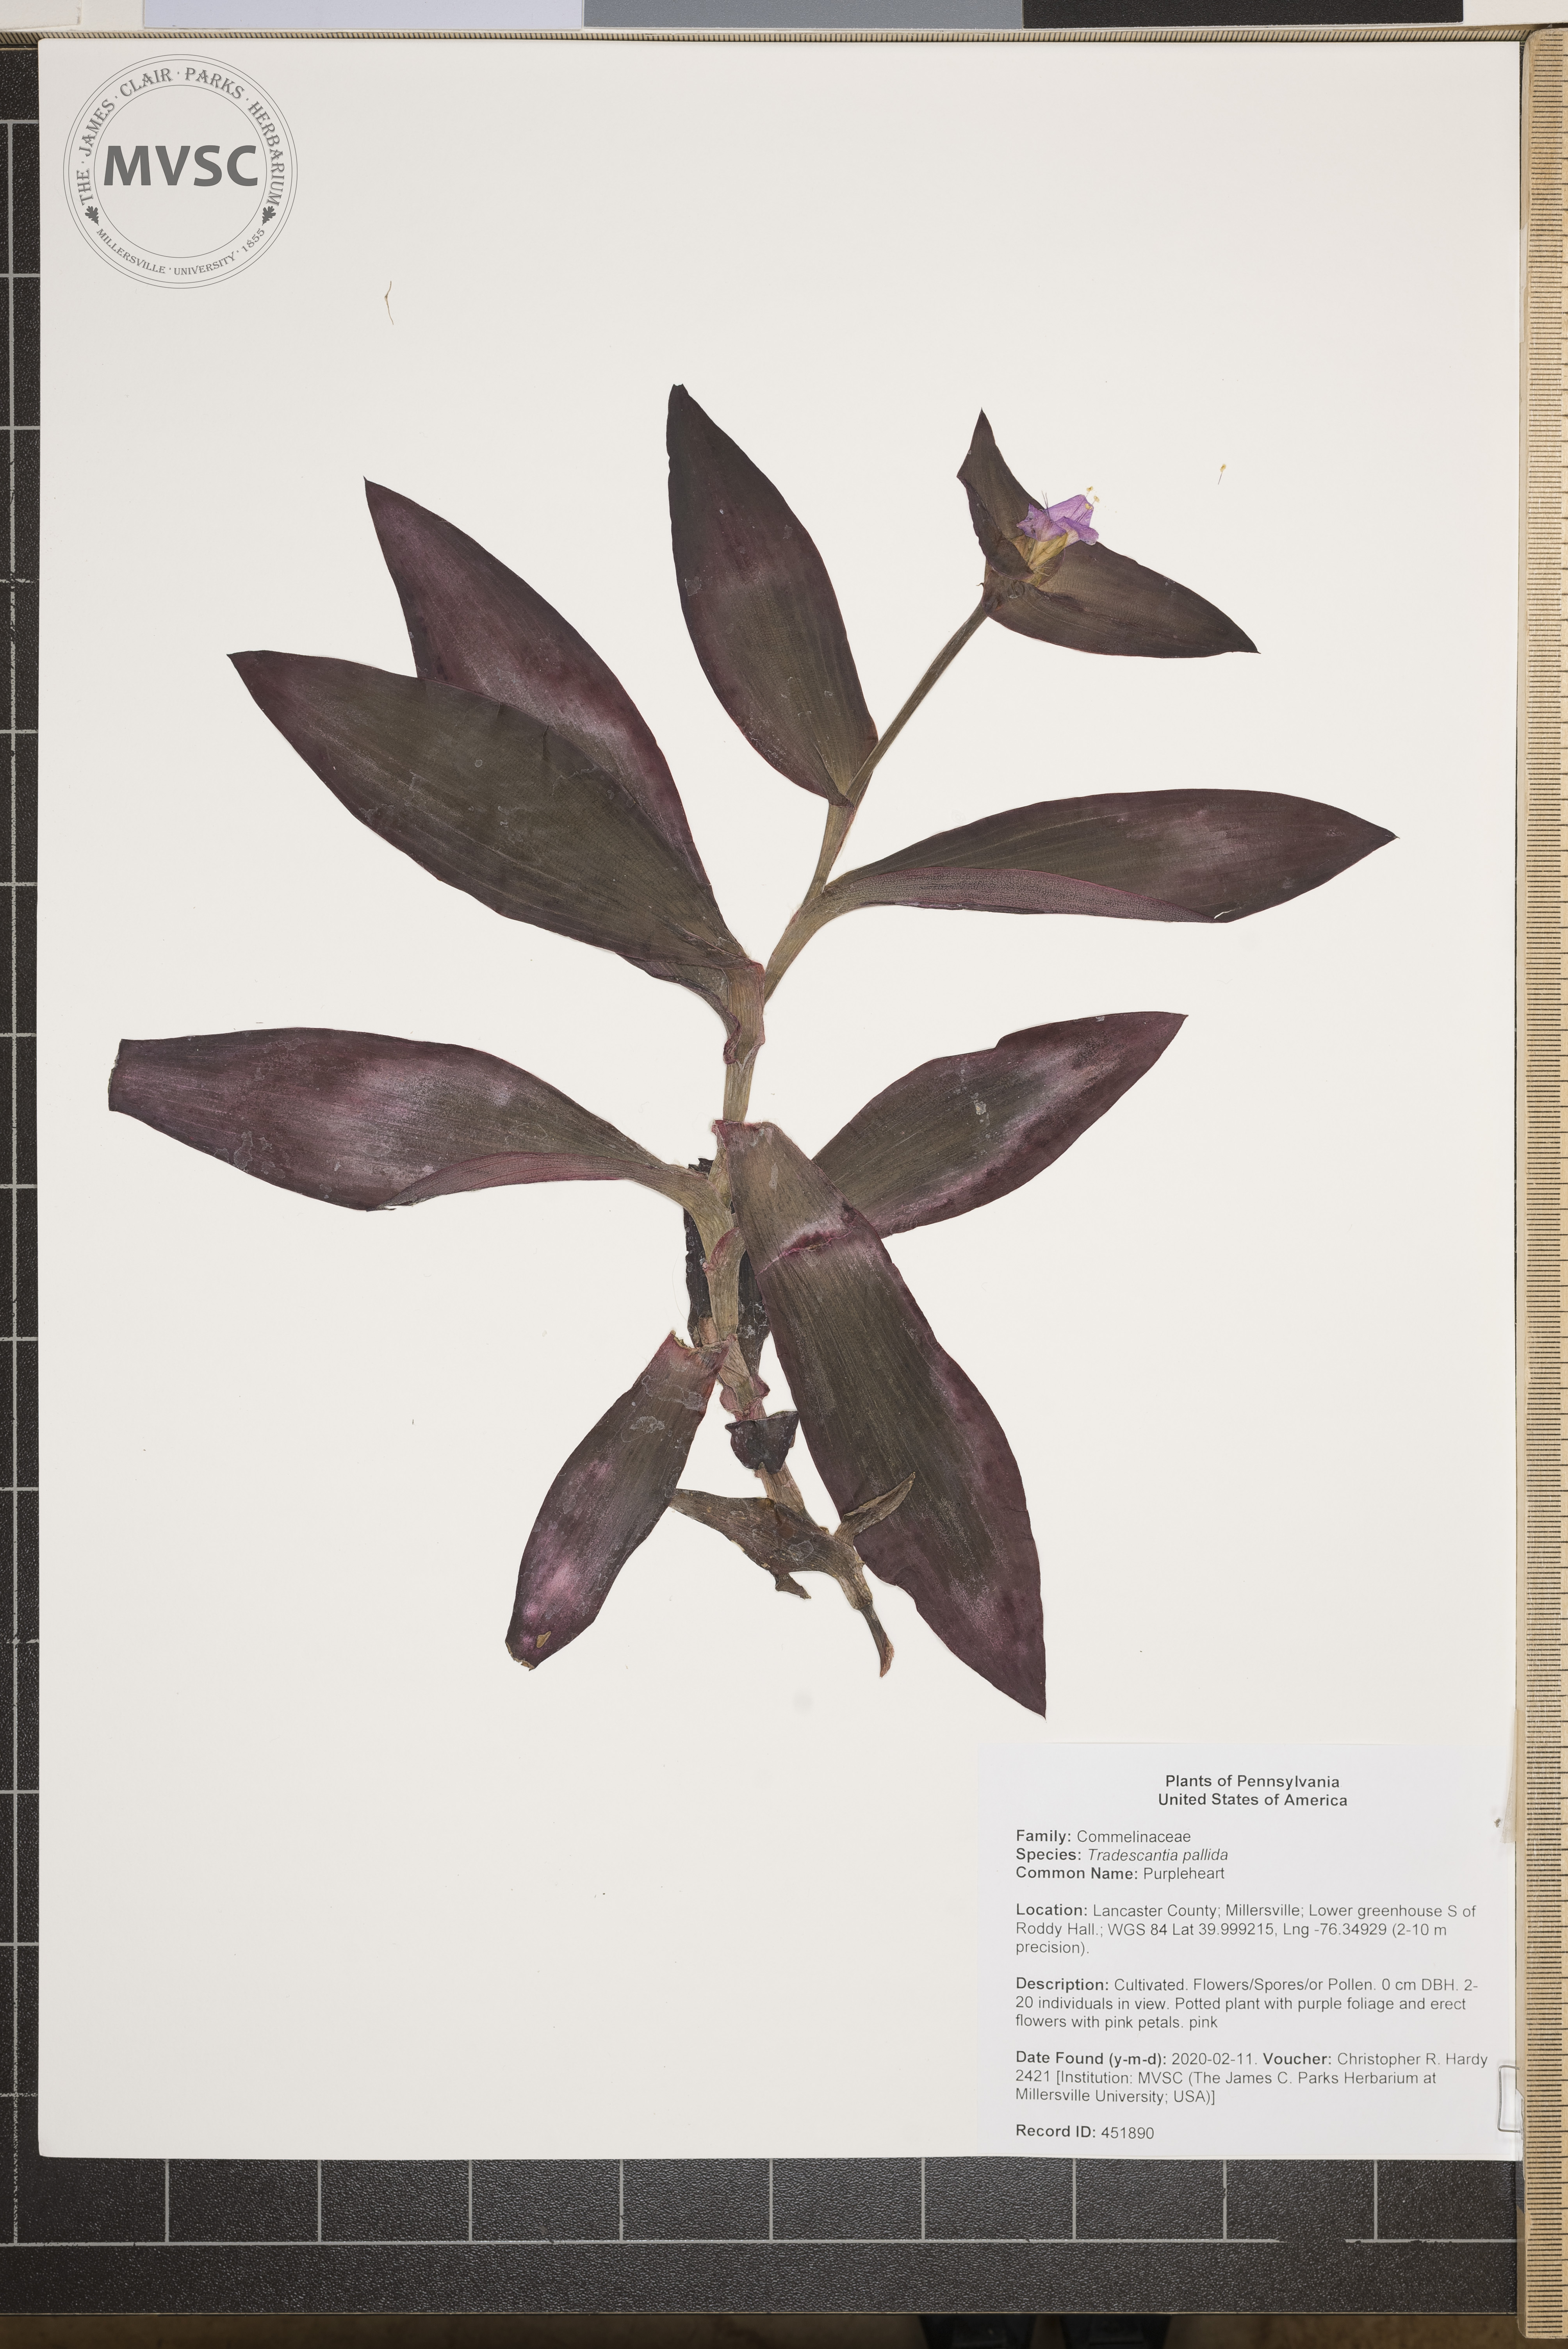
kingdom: Plantae
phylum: Tracheophyta
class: Liliopsida
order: Commelinales
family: Commelinaceae
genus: Tradescantia
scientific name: Tradescantia pallida
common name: Purpleheart
